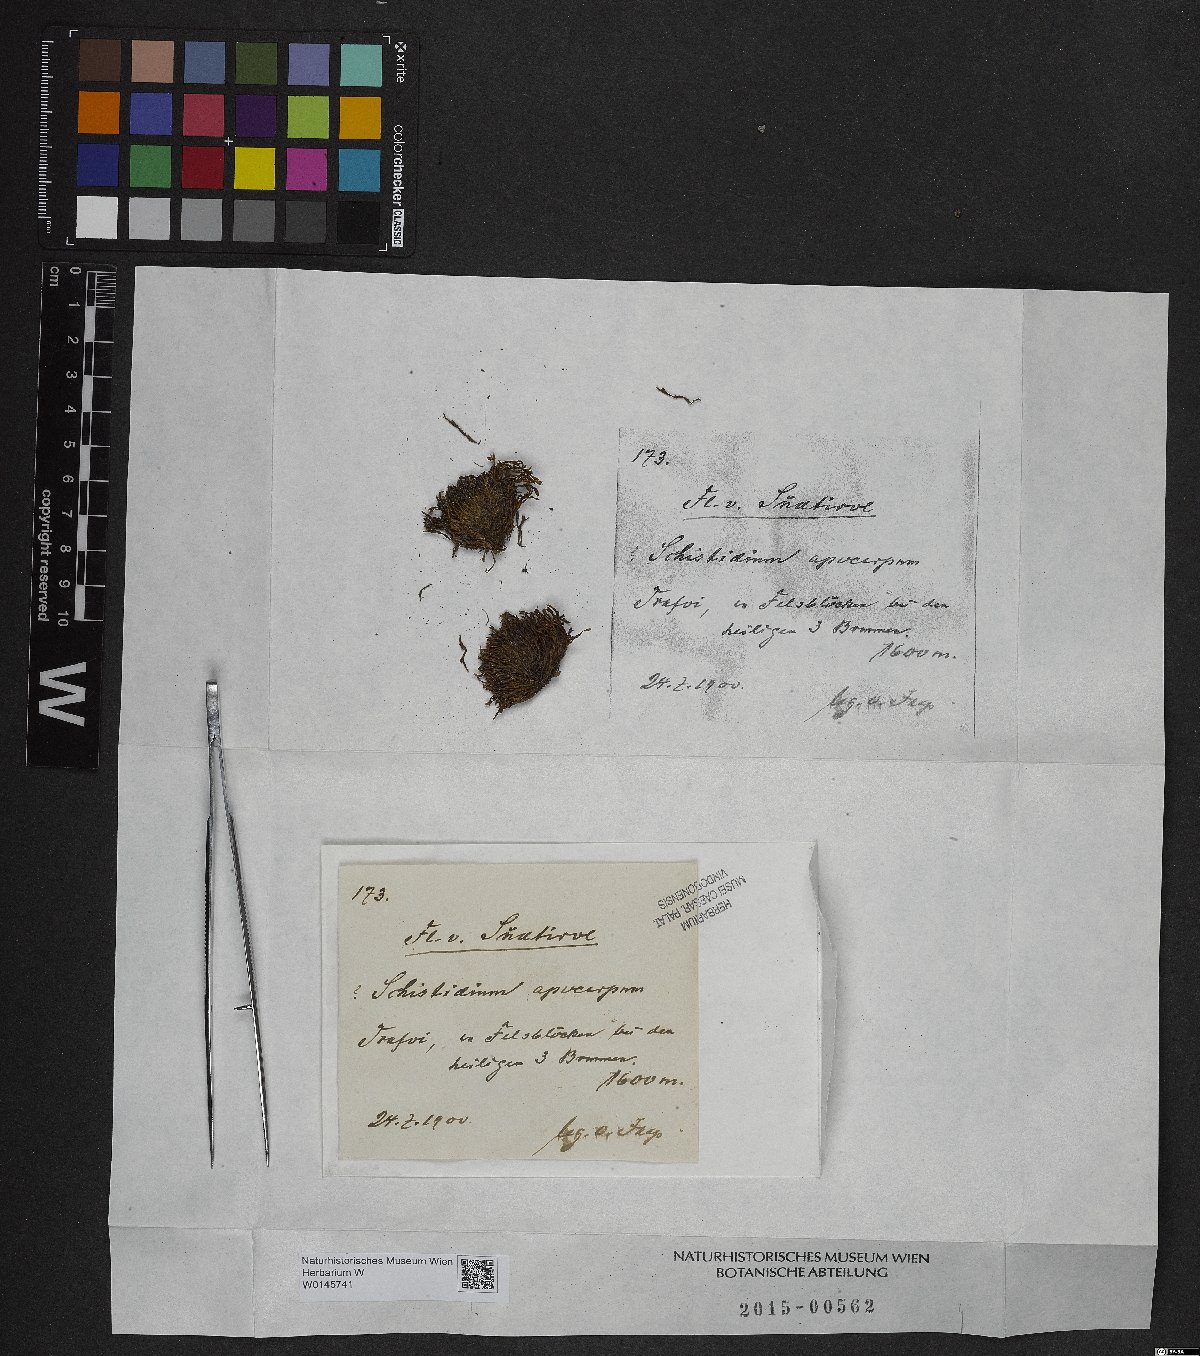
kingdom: Plantae
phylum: Bryophyta
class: Bryopsida
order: Grimmiales
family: Grimmiaceae
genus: Schistidium
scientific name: Schistidium apocarpum
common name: Radiate bloom moss
